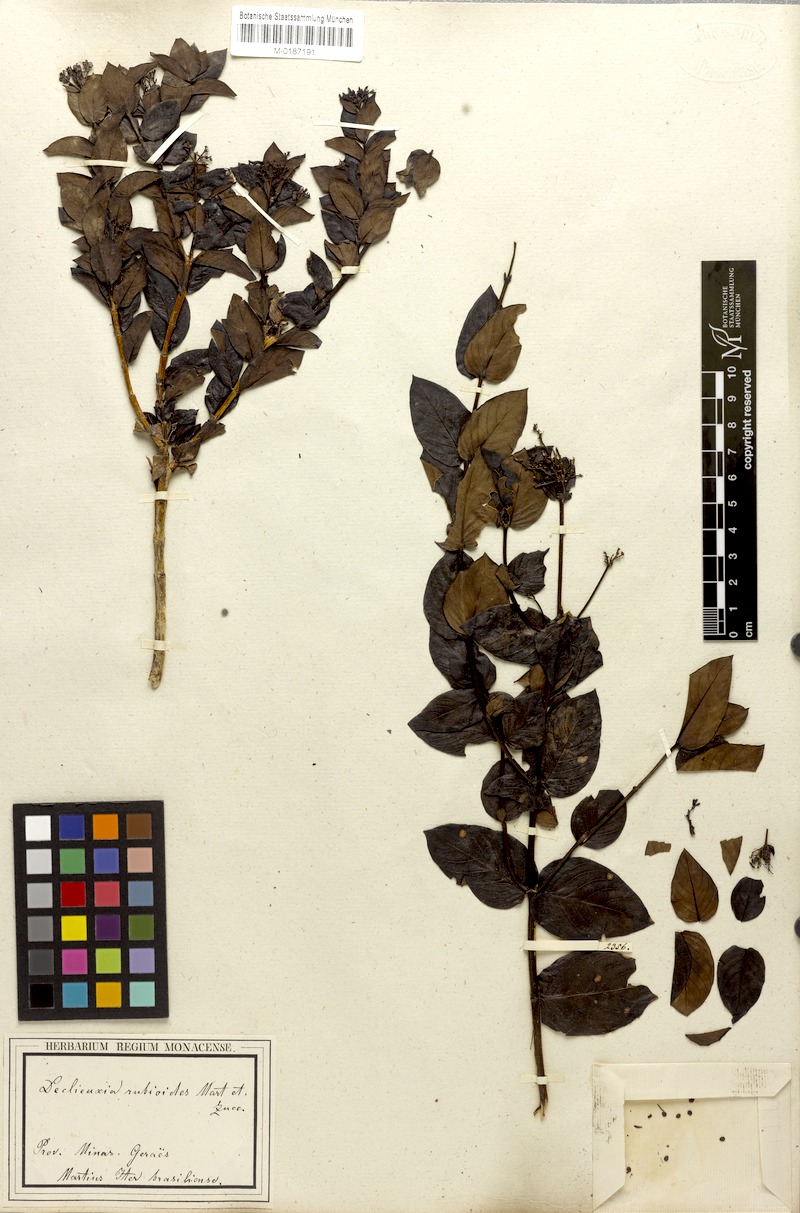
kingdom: Plantae
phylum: Tracheophyta
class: Magnoliopsida
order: Gentianales
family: Rubiaceae
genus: Declieuxia
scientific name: Declieuxia fruticosa
